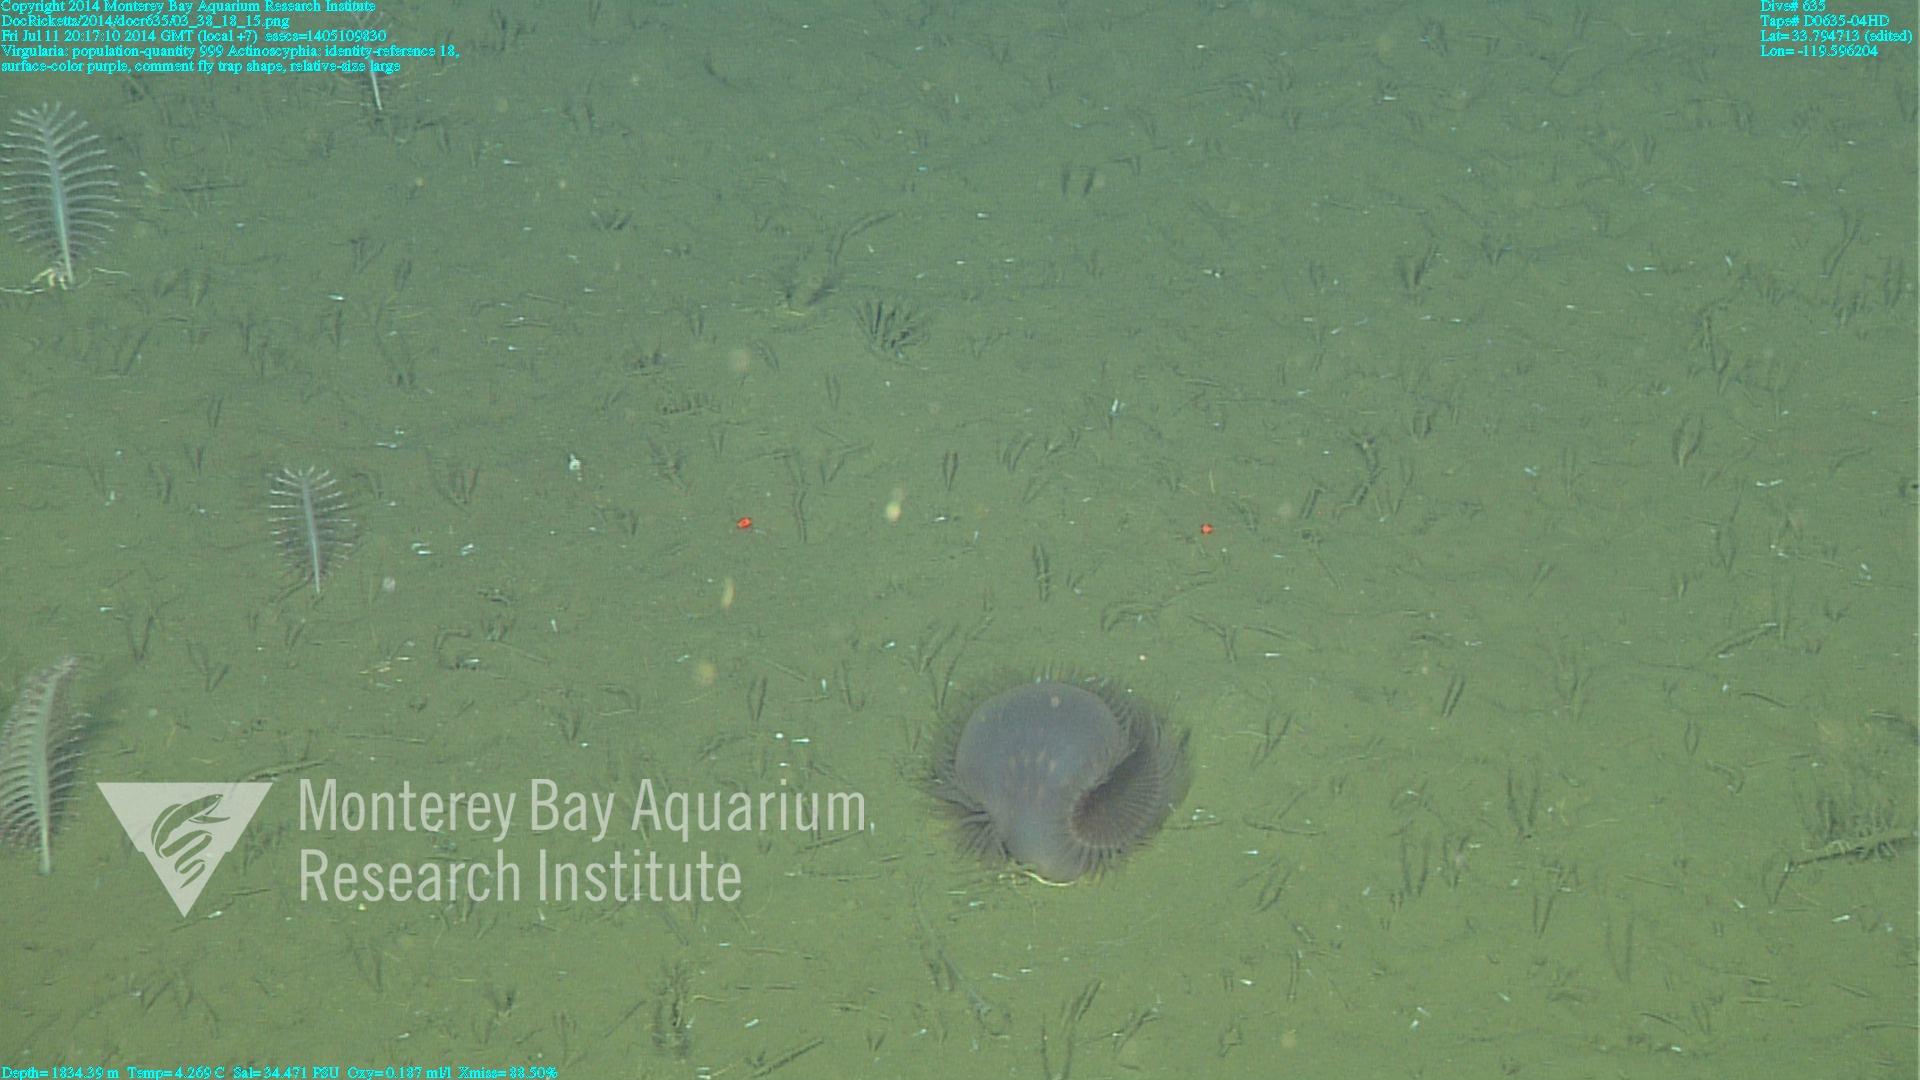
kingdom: Animalia
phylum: Cnidaria
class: Anthozoa
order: Scleralcyonacea
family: Virgulariidae
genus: Virgularia
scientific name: Virgularia
